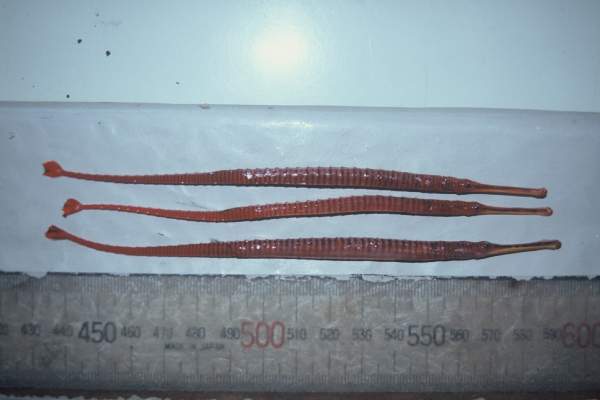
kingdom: Animalia
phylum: Chordata
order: Syngnathiformes
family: Syngnathidae
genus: Dunckerocampus
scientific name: Dunckerocampus multiannulatus
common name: Many-banded pipefish
